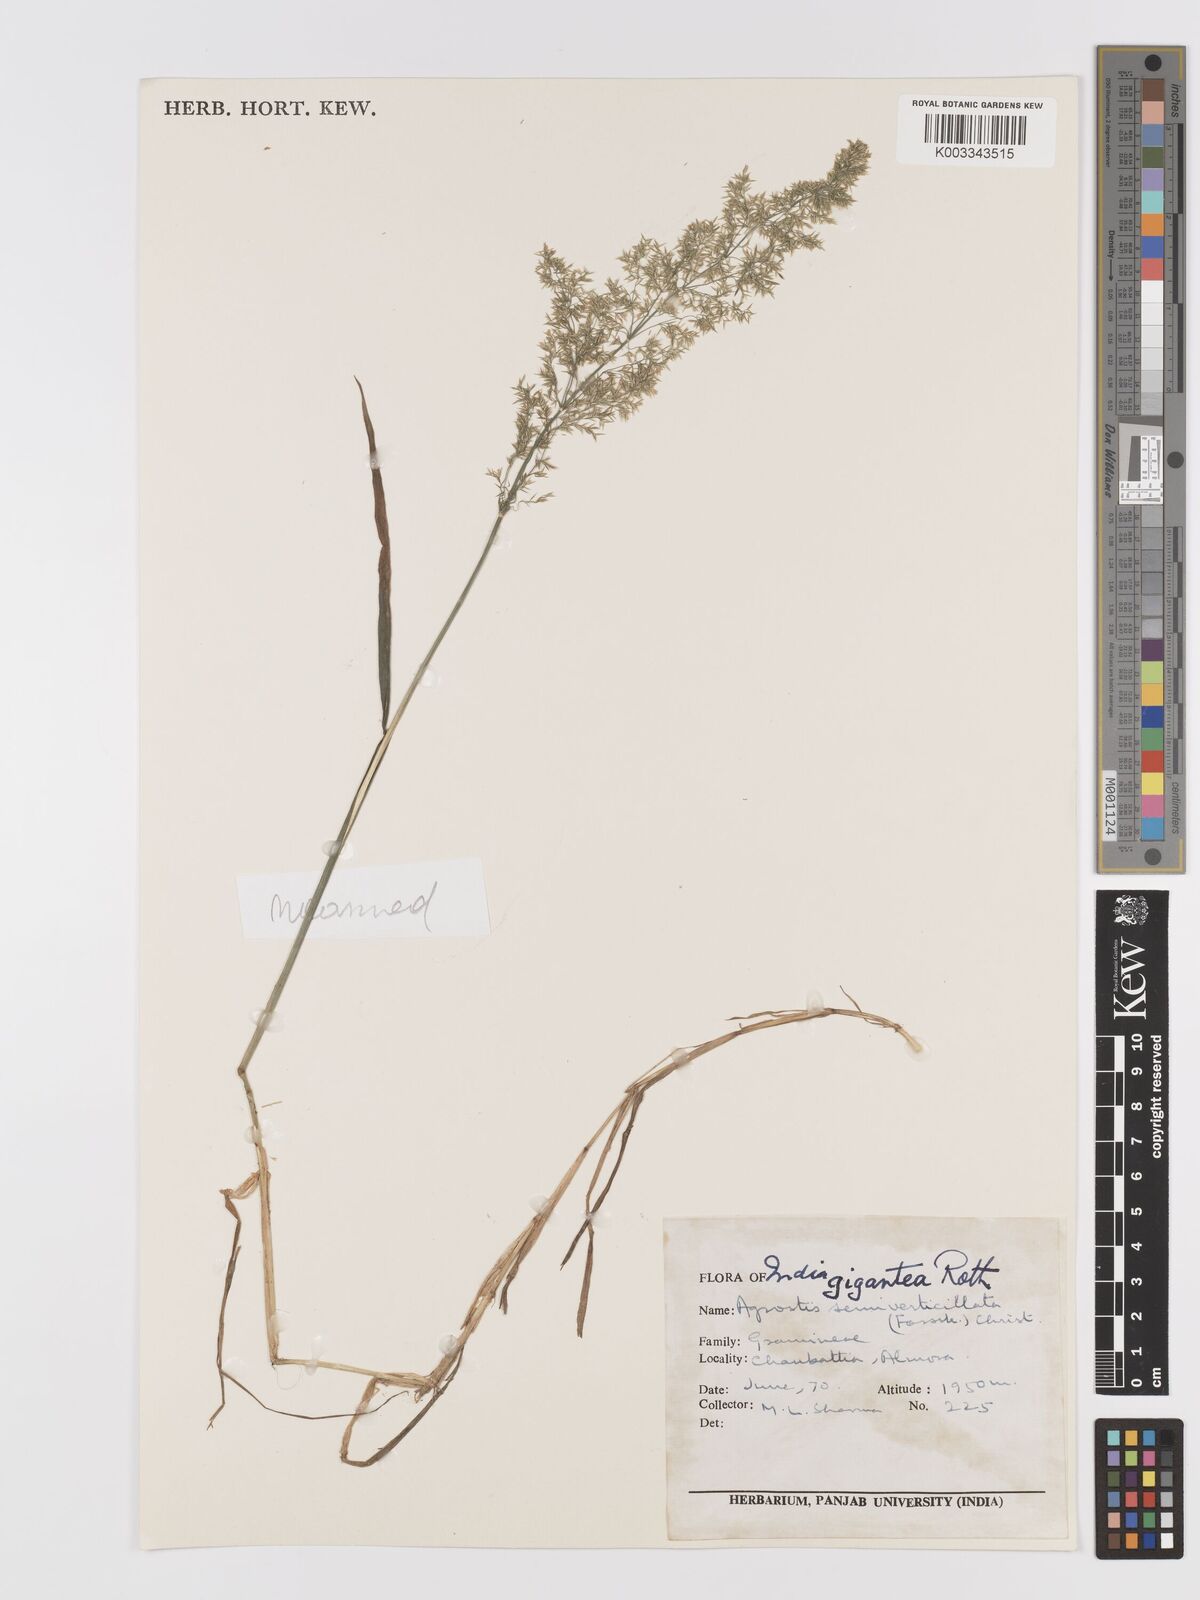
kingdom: Plantae
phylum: Tracheophyta
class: Liliopsida
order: Poales
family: Poaceae
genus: Agrostis
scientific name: Agrostis gigantea
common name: Black bent
